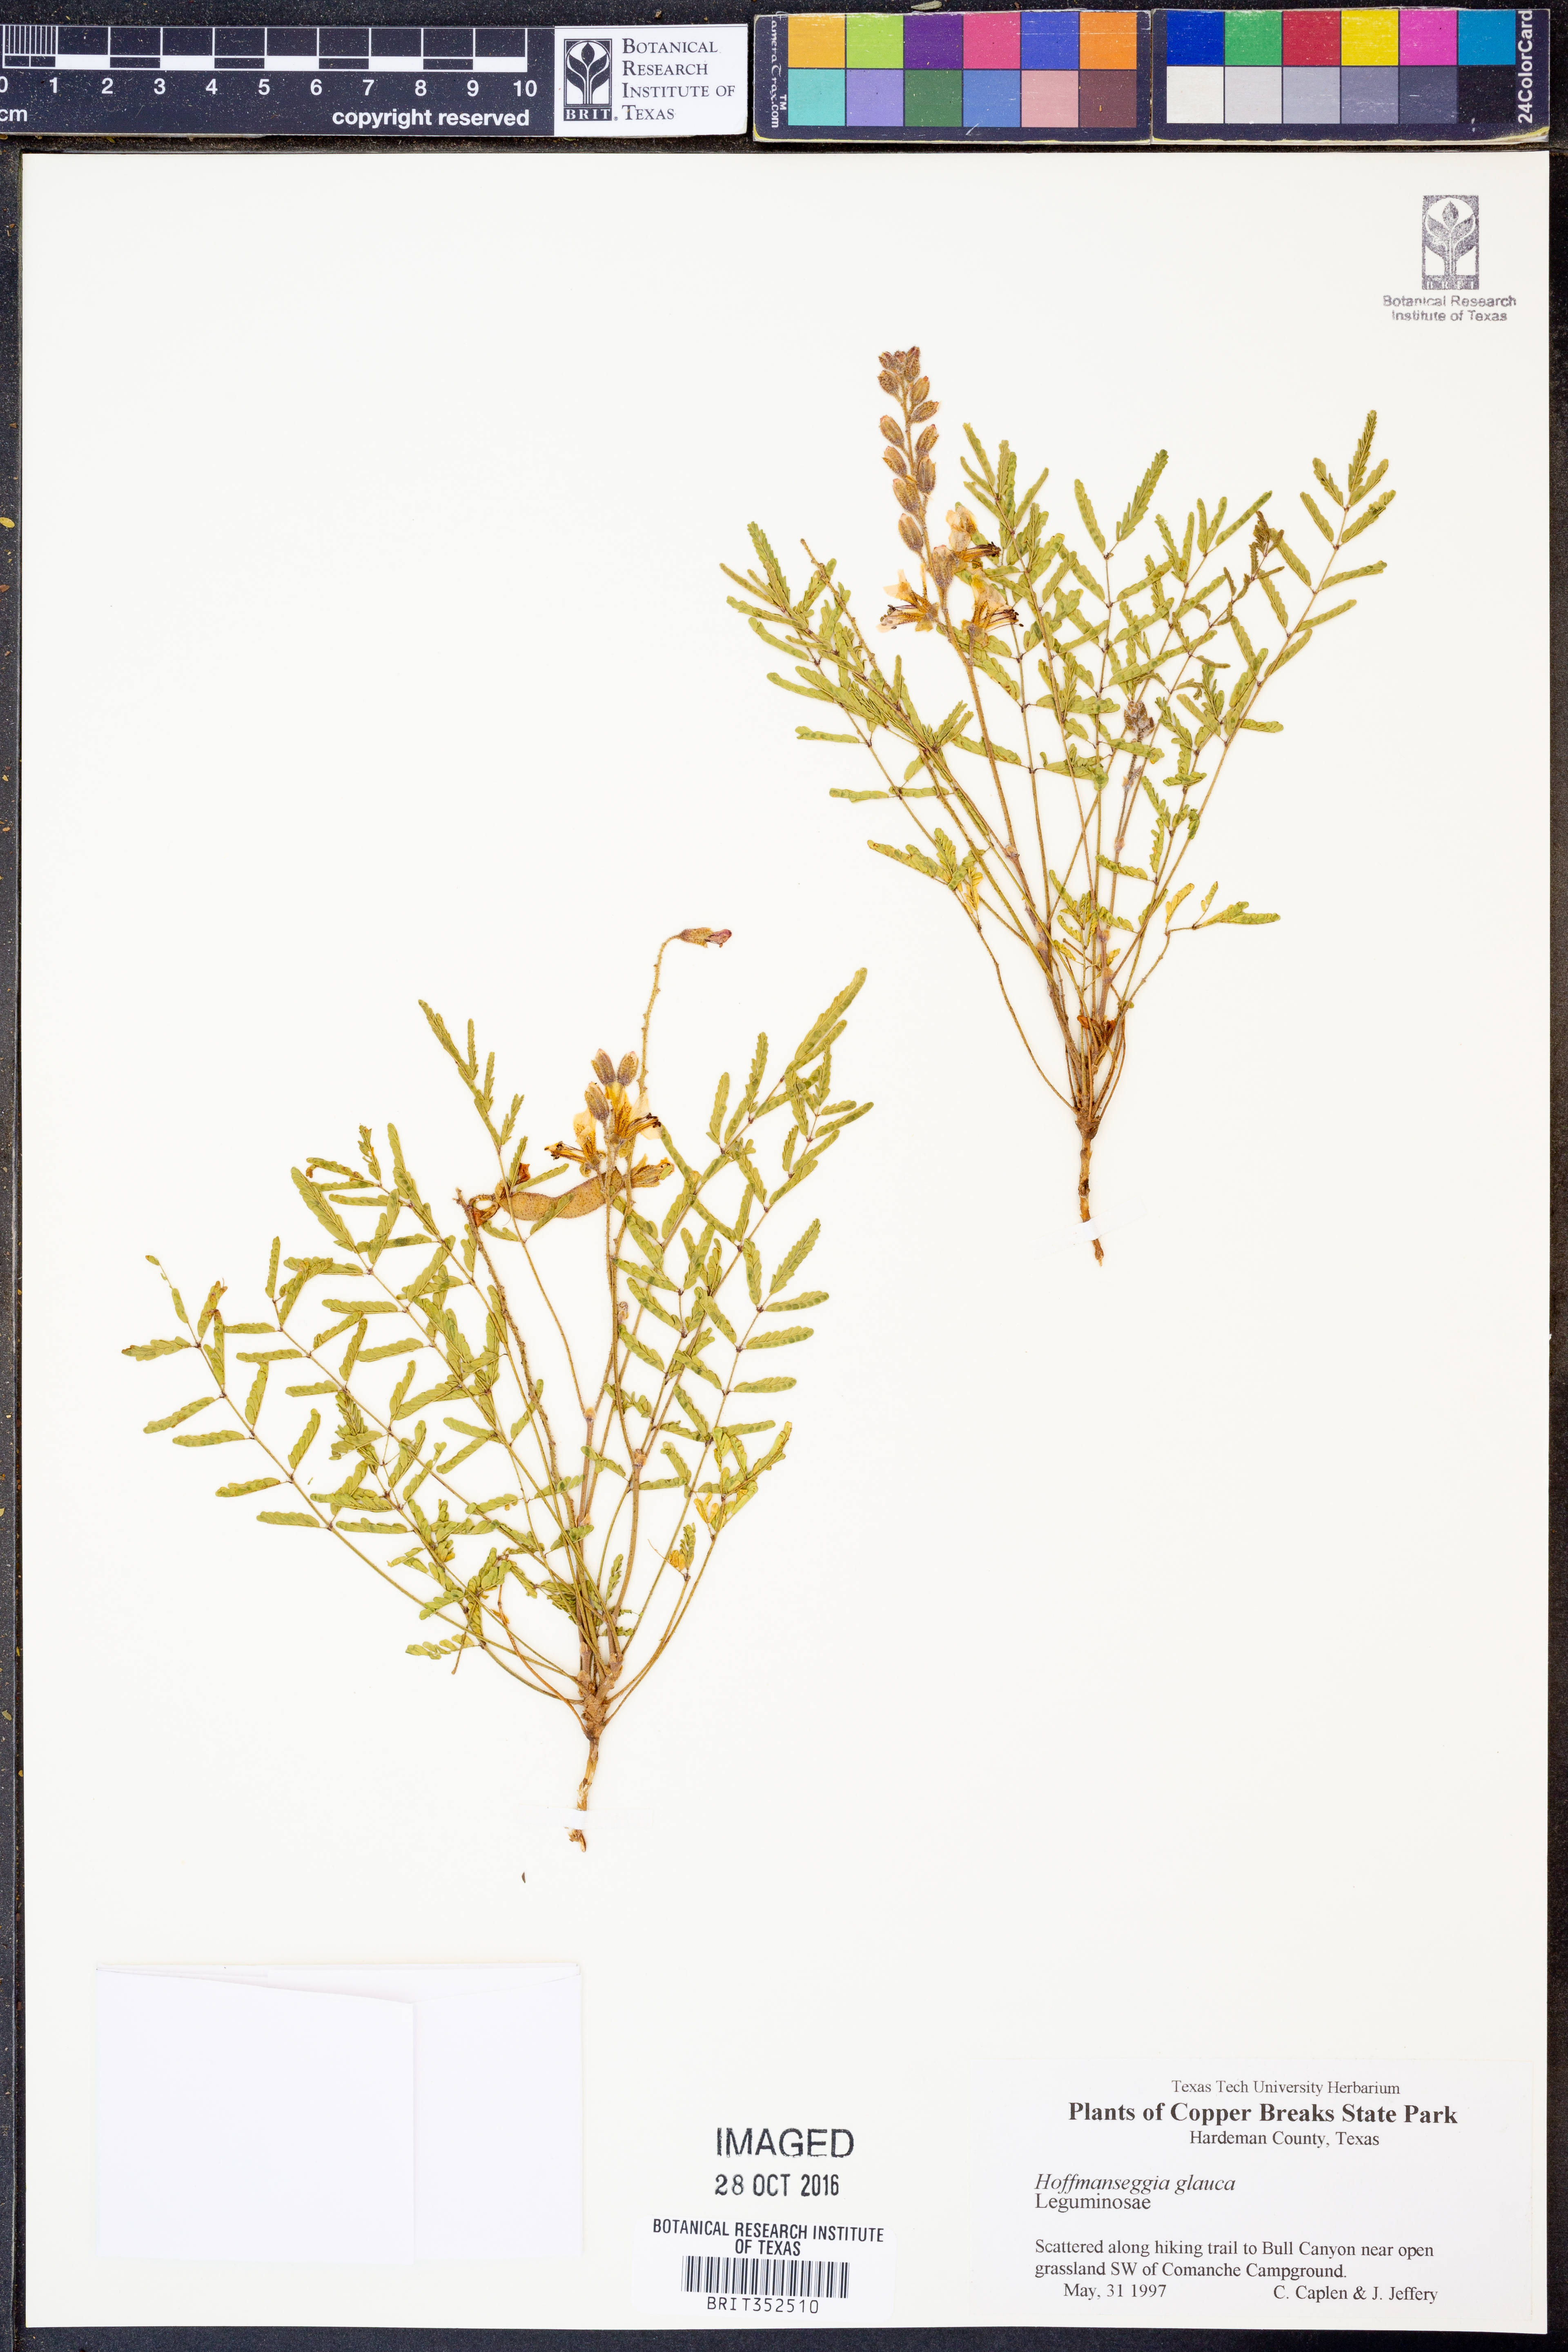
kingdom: Plantae
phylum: Tracheophyta
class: Magnoliopsida
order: Fabales
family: Fabaceae
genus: Hoffmannseggia
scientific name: Hoffmannseggia glauca
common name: Pignut
